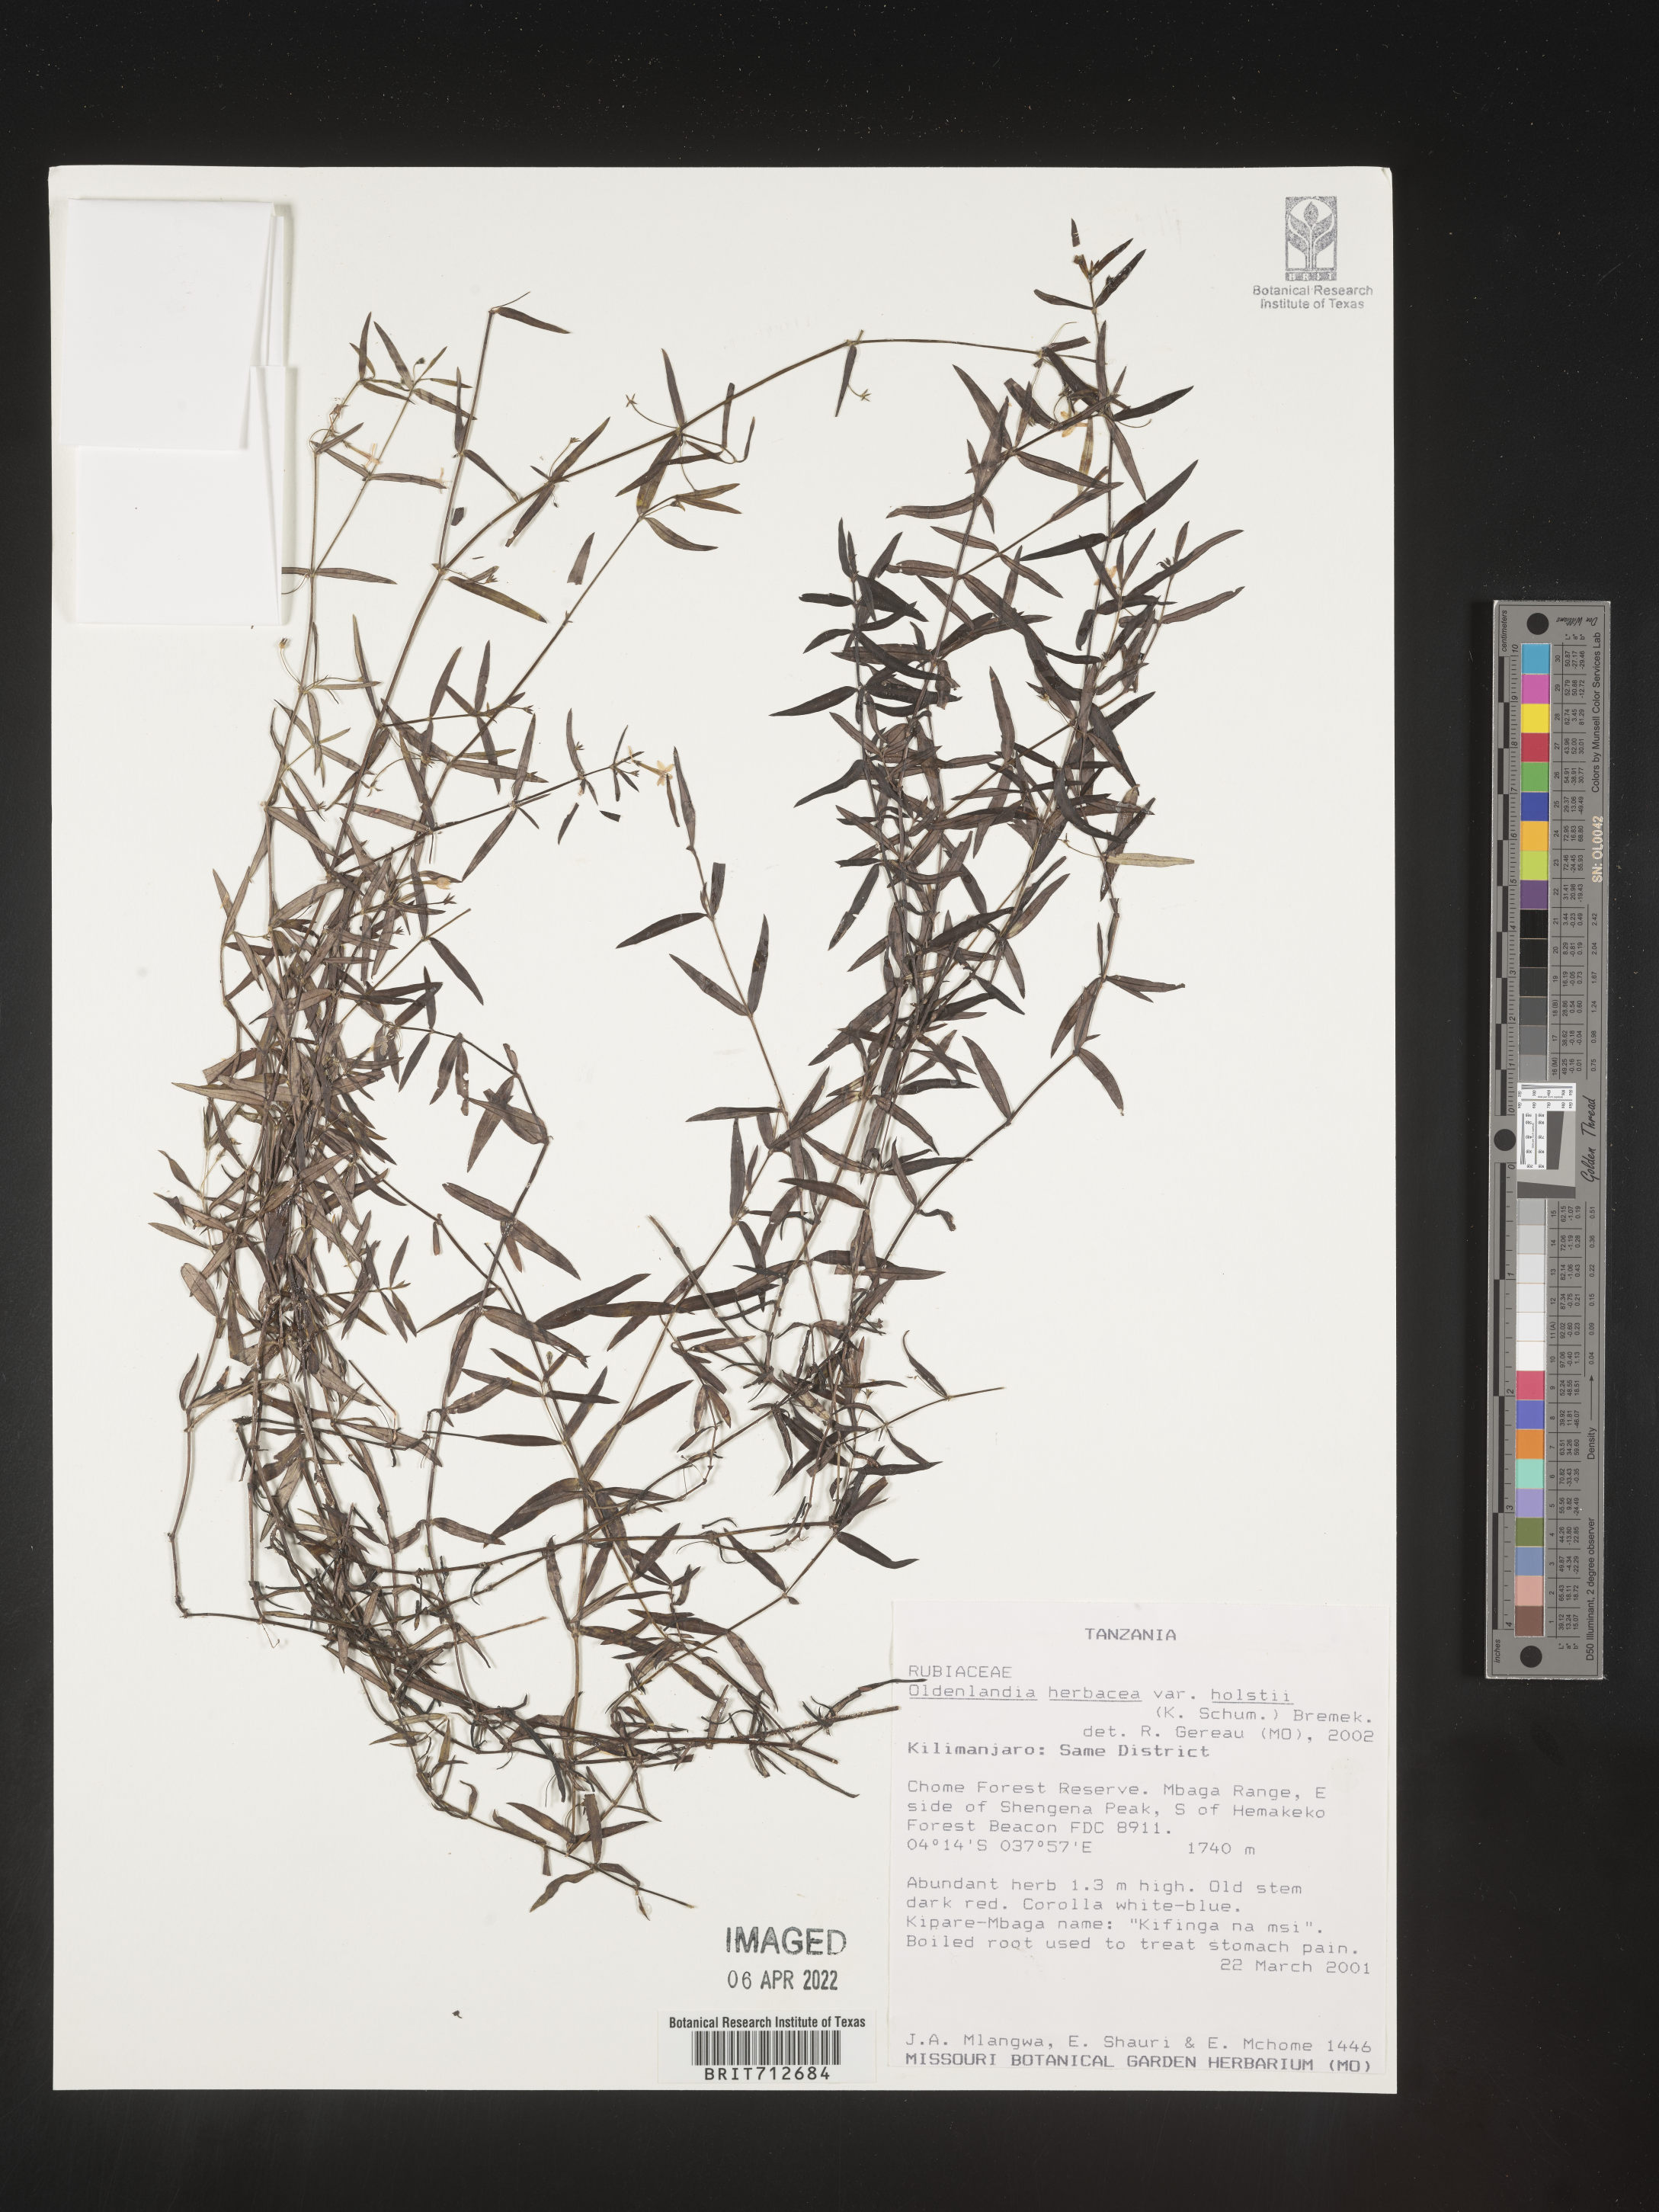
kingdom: Plantae
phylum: Tracheophyta
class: Magnoliopsida
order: Gentianales
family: Rubiaceae
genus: Oldenlandia
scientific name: Oldenlandia
